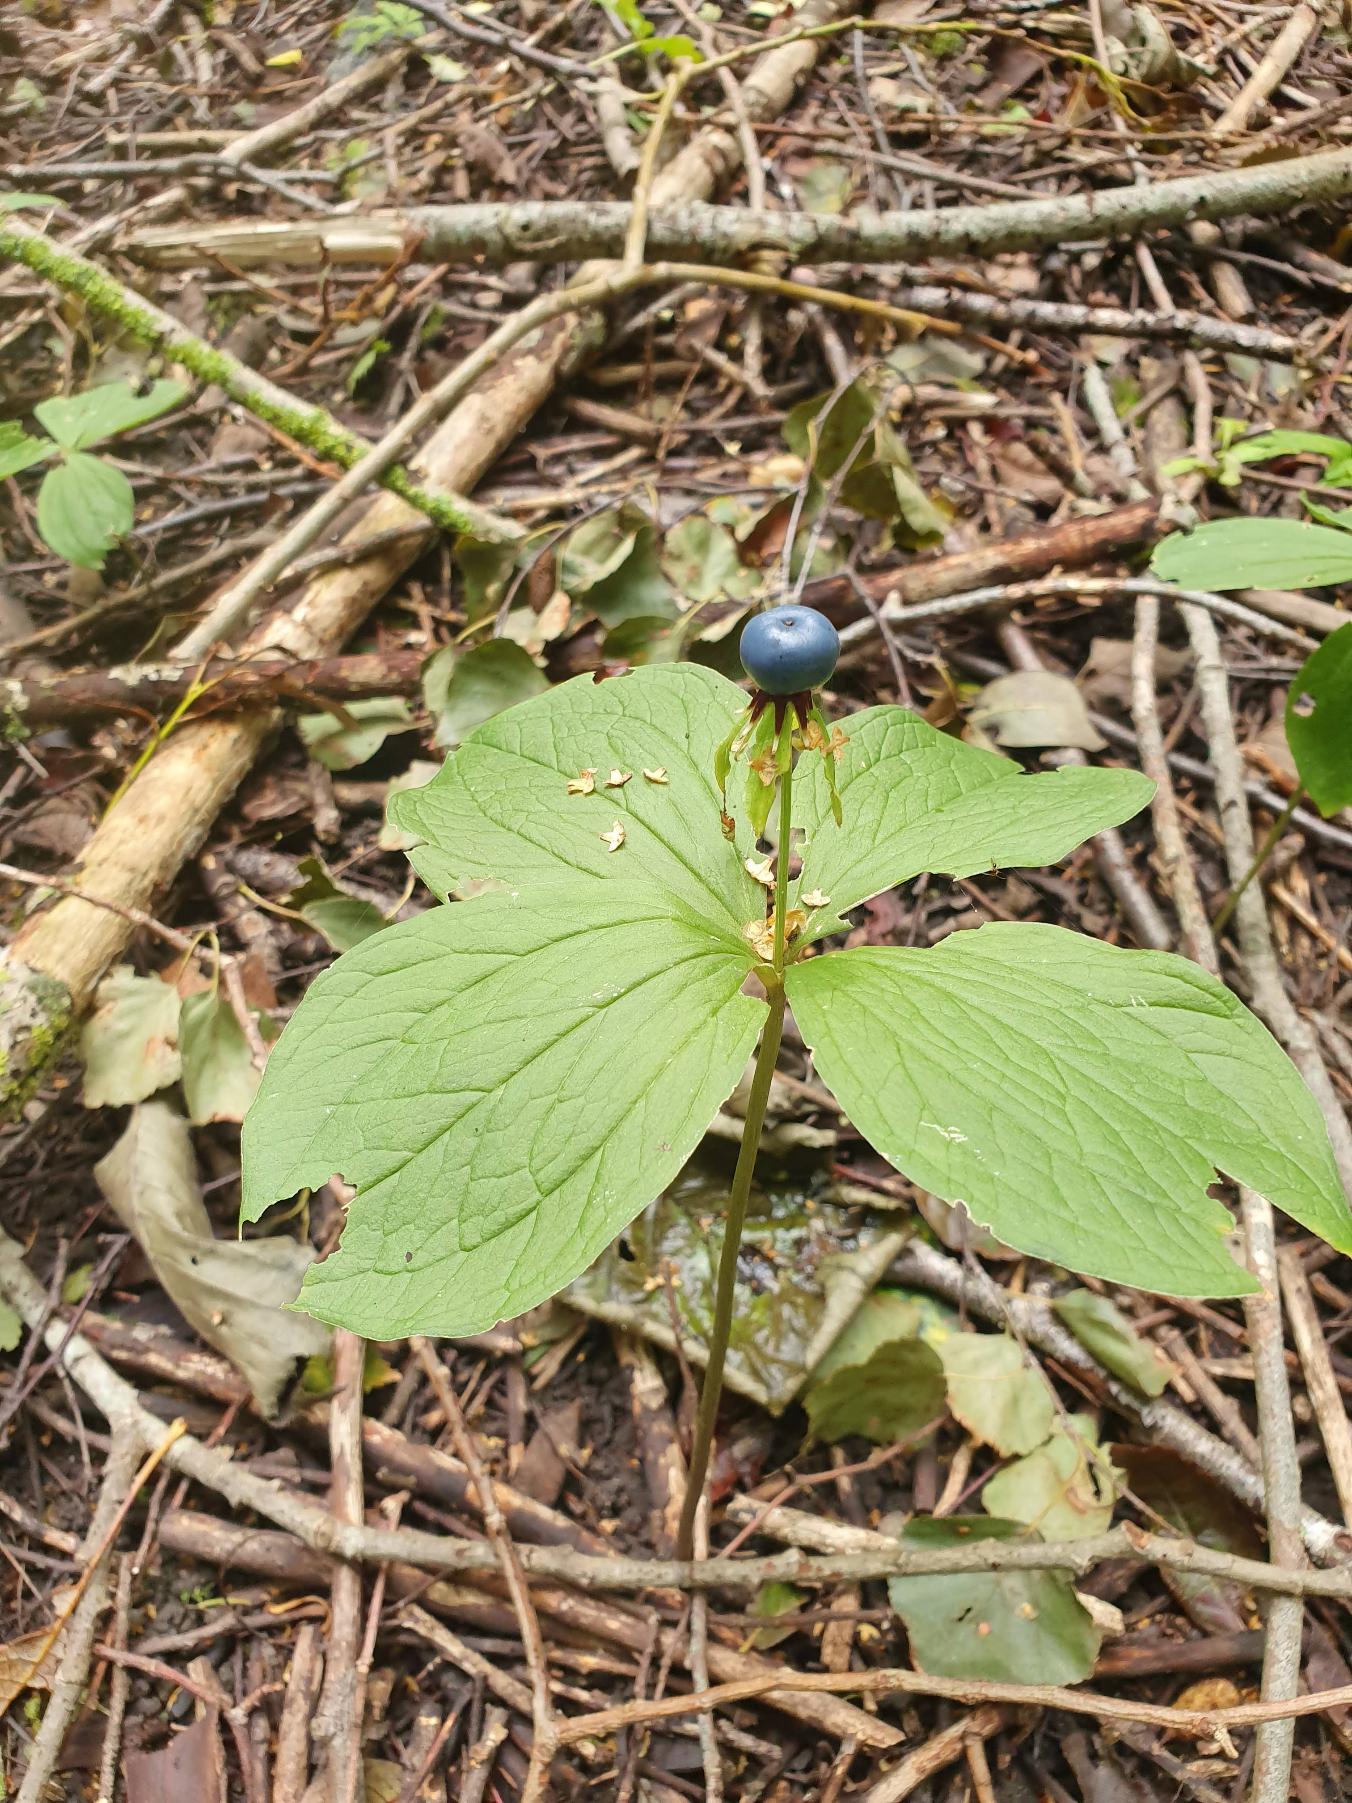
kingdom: Plantae
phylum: Tracheophyta
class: Liliopsida
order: Liliales
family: Melanthiaceae
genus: Paris
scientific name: Paris quadrifolia
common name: Firblad
